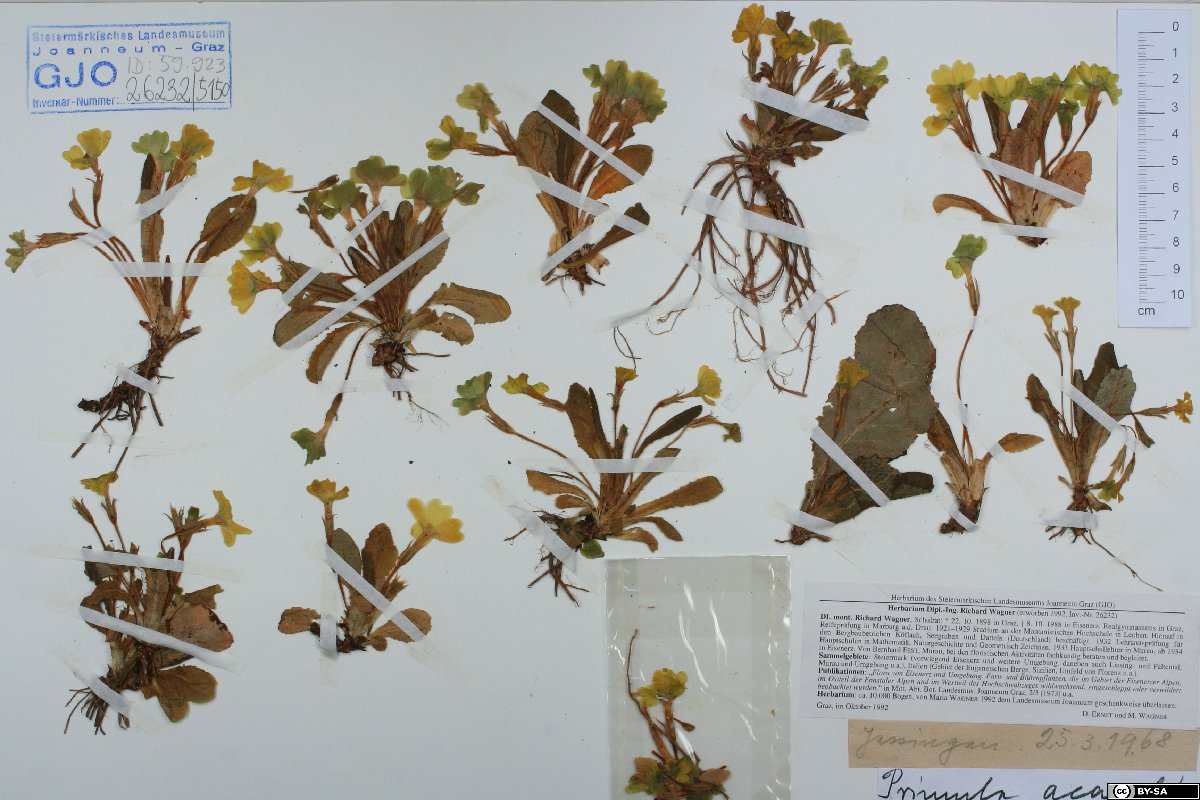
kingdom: Plantae
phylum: Tracheophyta
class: Magnoliopsida
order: Ericales
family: Primulaceae
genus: Primula
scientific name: Primula vulgaris
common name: Primrose
